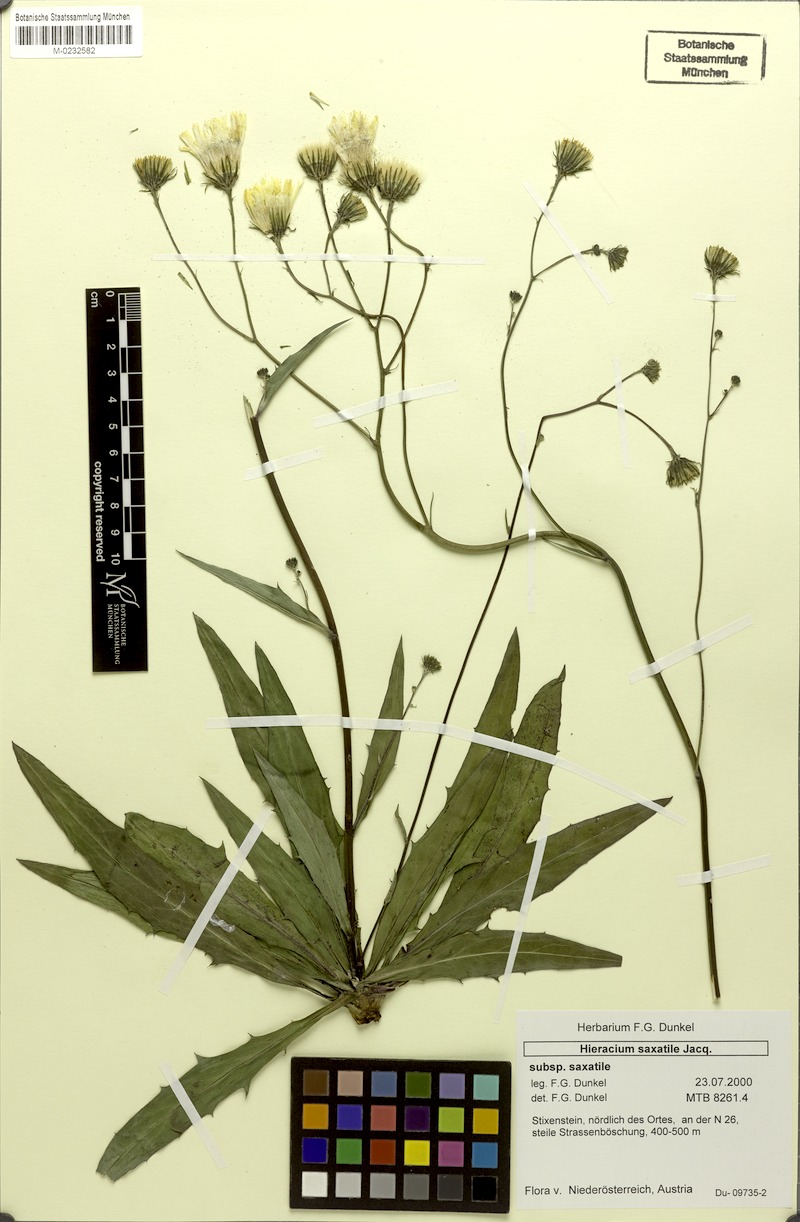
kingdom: Plantae
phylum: Tracheophyta
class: Magnoliopsida
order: Asterales
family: Asteraceae
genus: Hieracium
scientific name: Hieracium saxatile
